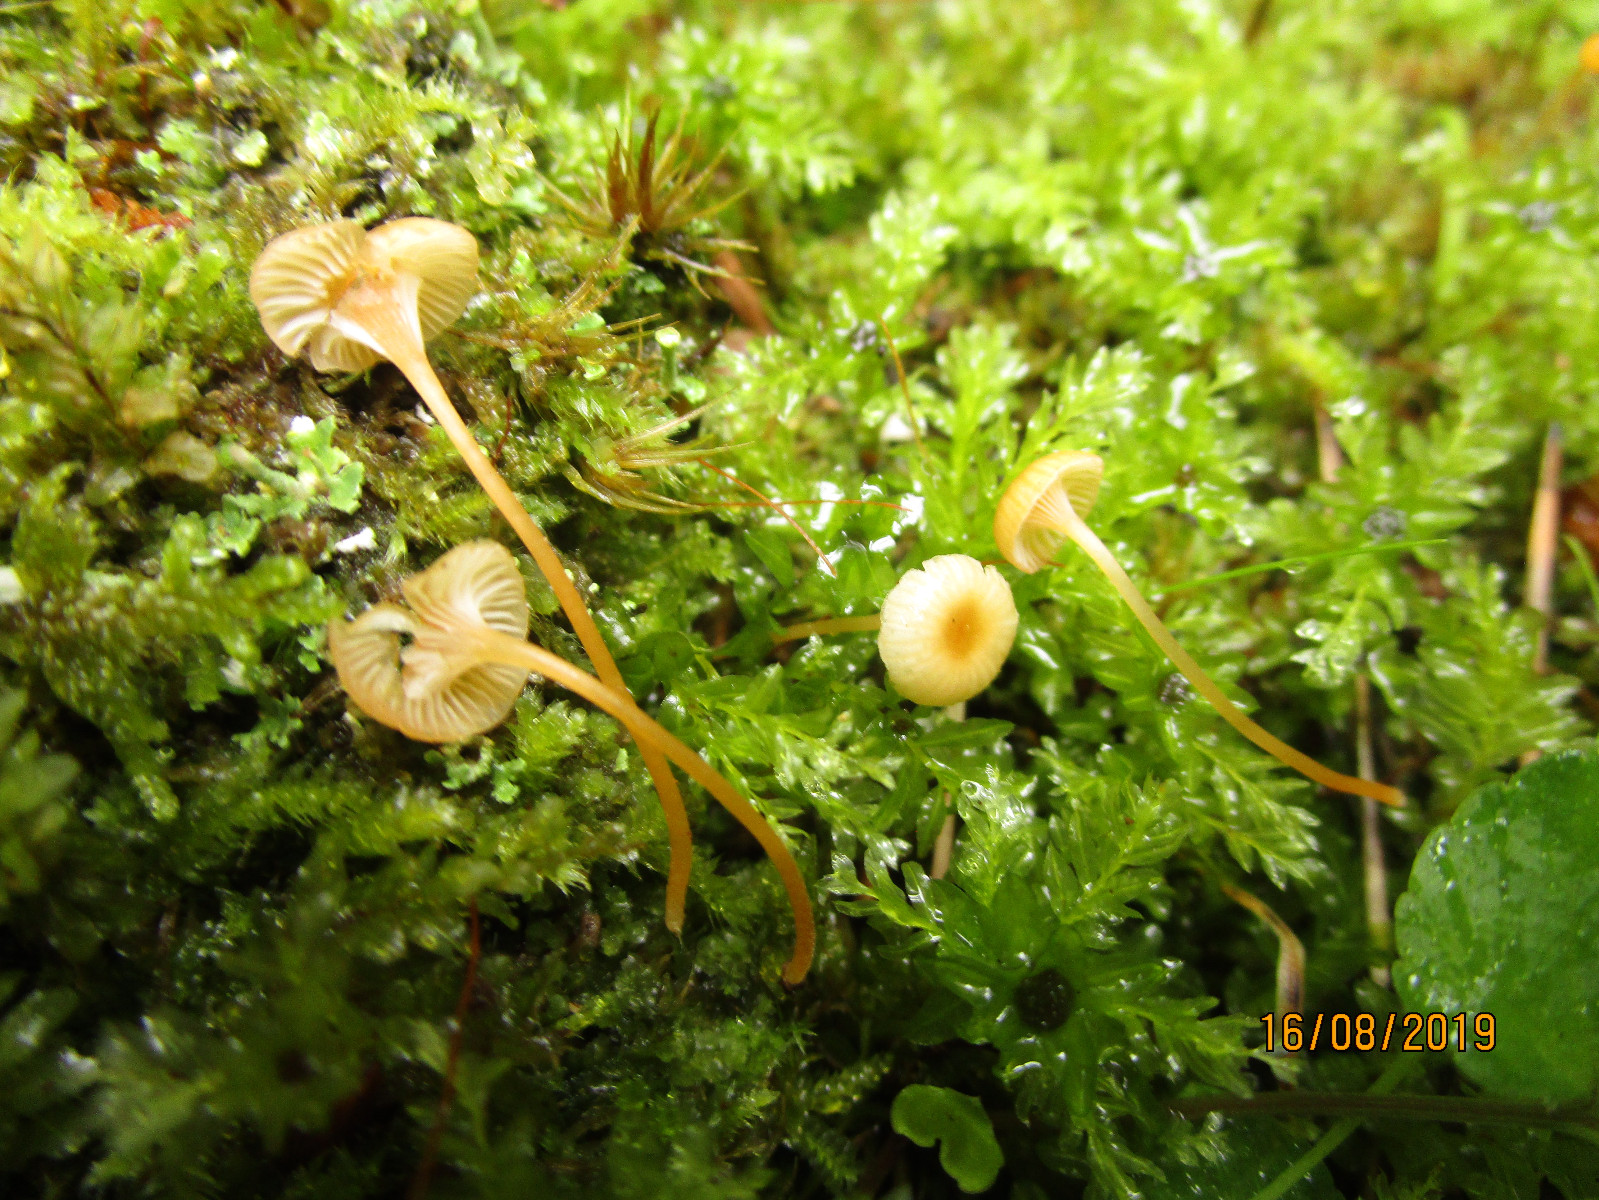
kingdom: Fungi
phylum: Basidiomycota
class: Agaricomycetes
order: Hymenochaetales
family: Rickenellaceae
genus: Rickenella
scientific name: Rickenella fibula
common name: orange mosnavlehat
